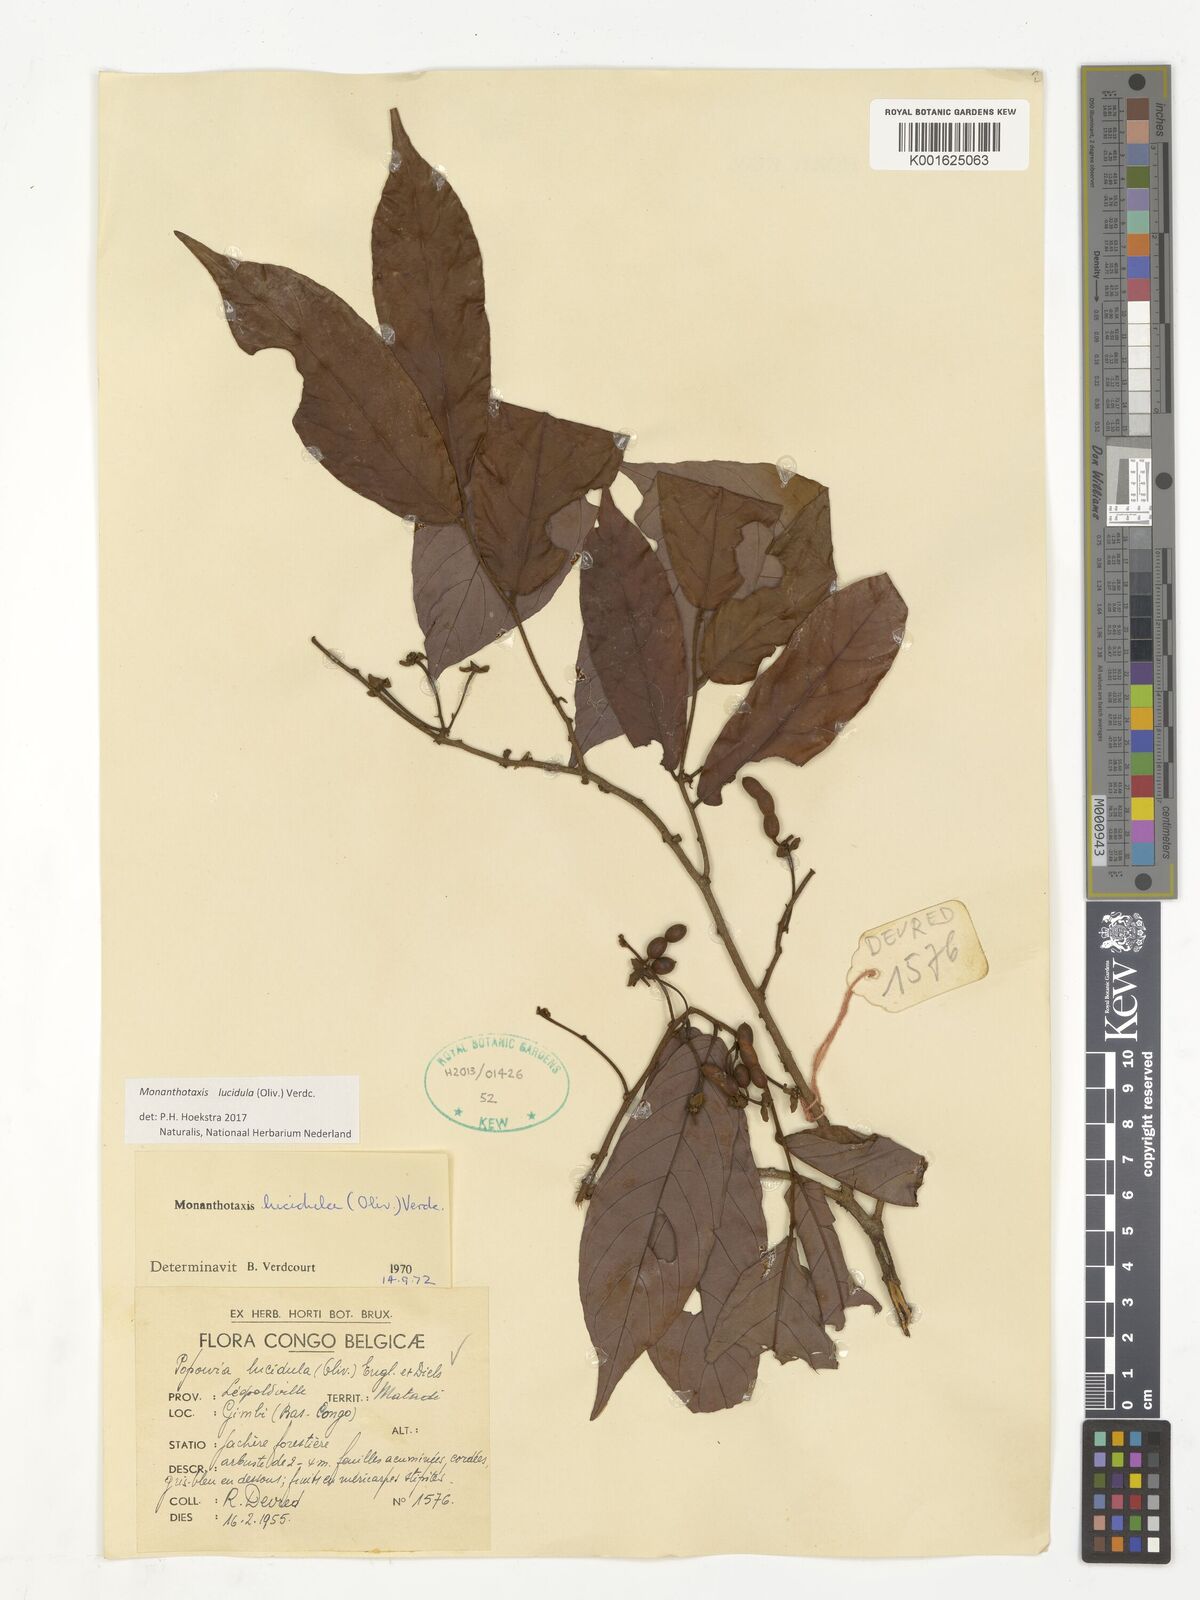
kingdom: Plantae
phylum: Tracheophyta
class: Magnoliopsida
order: Magnoliales
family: Annonaceae
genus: Monanthotaxis
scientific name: Monanthotaxis lucidula
